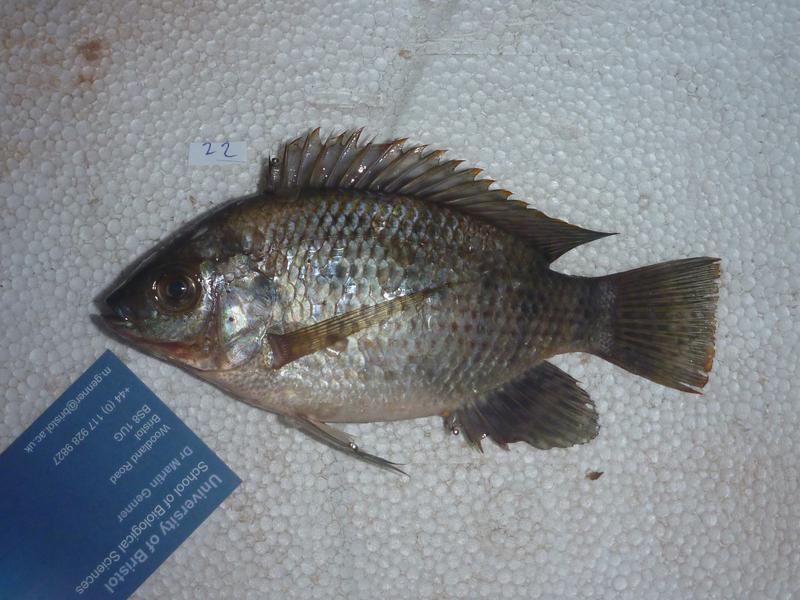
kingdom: Animalia
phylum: Chordata
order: Perciformes
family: Cichlidae
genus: Oreochromis
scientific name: Oreochromis upembae
